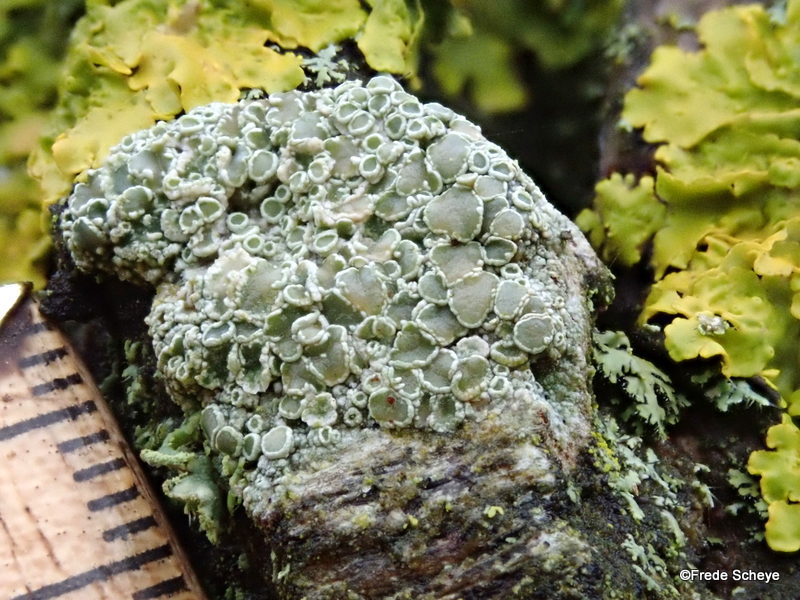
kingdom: Fungi
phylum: Ascomycota
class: Lecanoromycetes
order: Lecanorales
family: Lecanoraceae
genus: Lecanora
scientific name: Lecanora chlarotera
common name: brun kantskivelav
